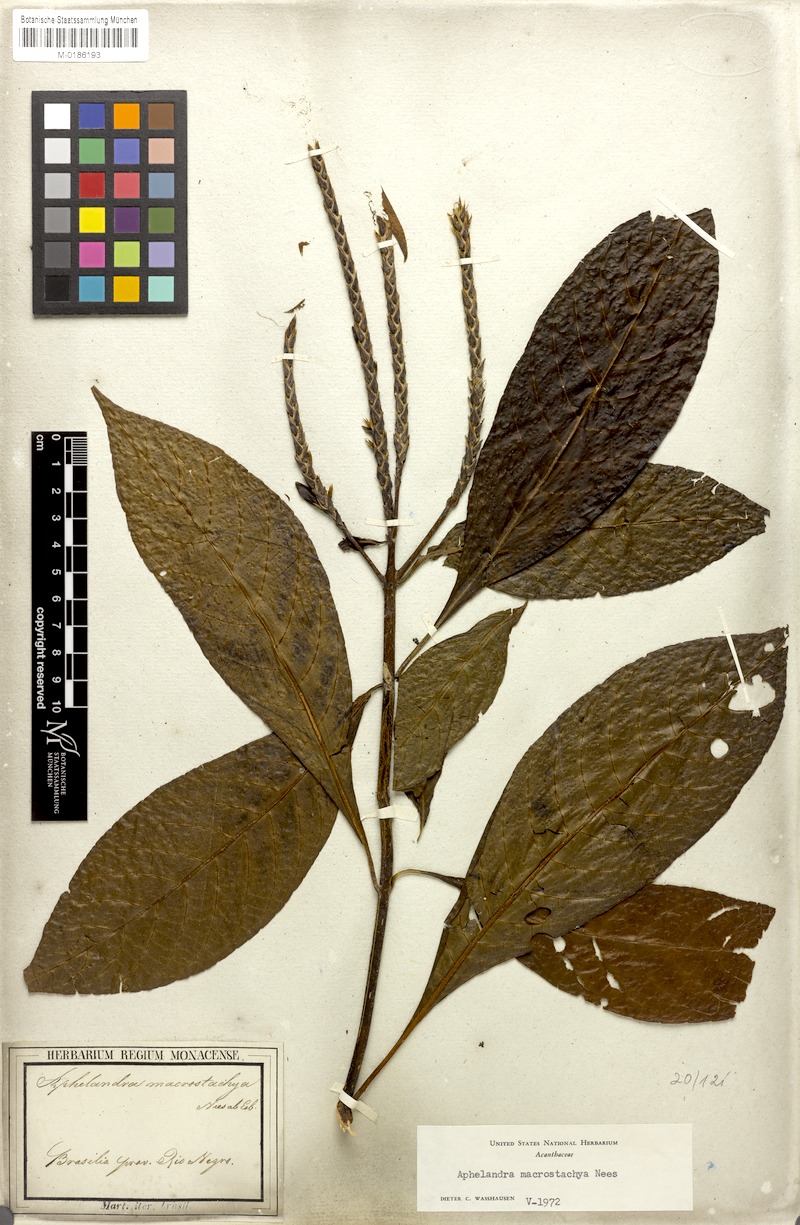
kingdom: Plantae
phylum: Tracheophyta
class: Magnoliopsida
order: Lamiales
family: Acanthaceae
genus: Aphelandra
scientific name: Aphelandra macrostachya
